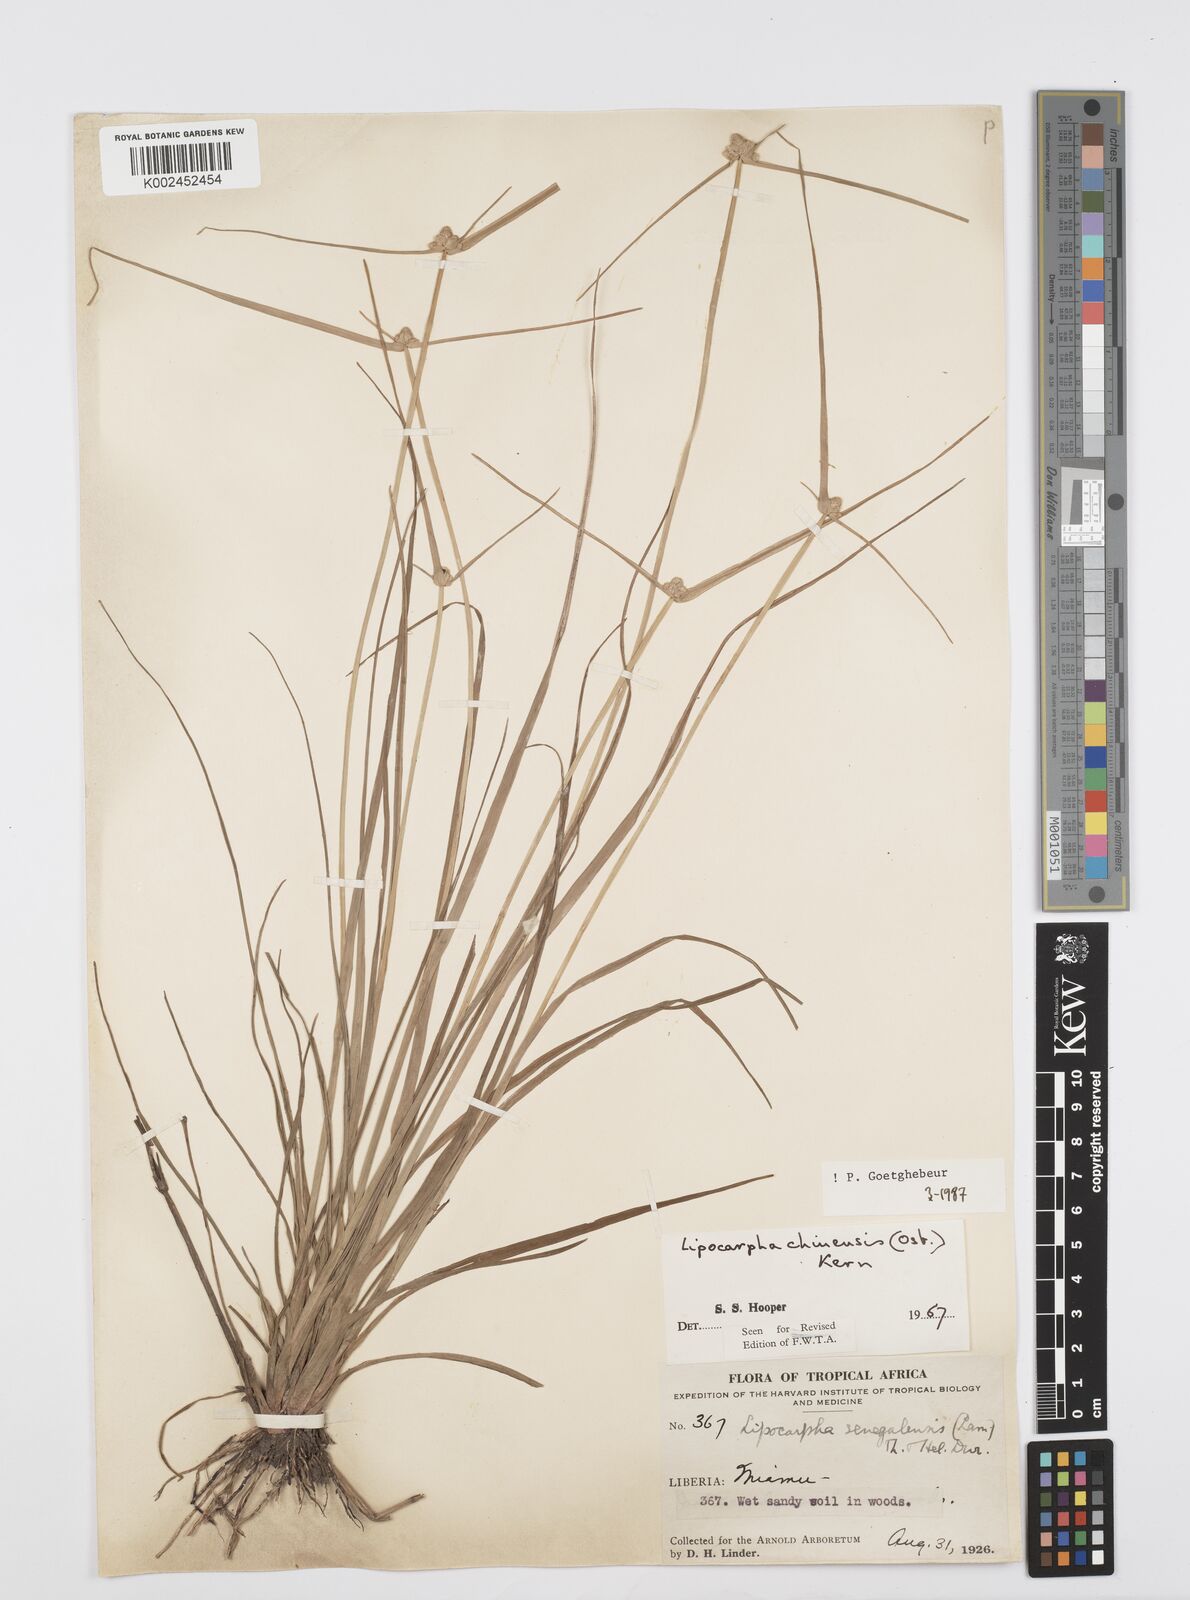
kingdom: Plantae
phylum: Tracheophyta
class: Liliopsida
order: Poales
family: Cyperaceae
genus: Cyperus
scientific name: Cyperus albescens
